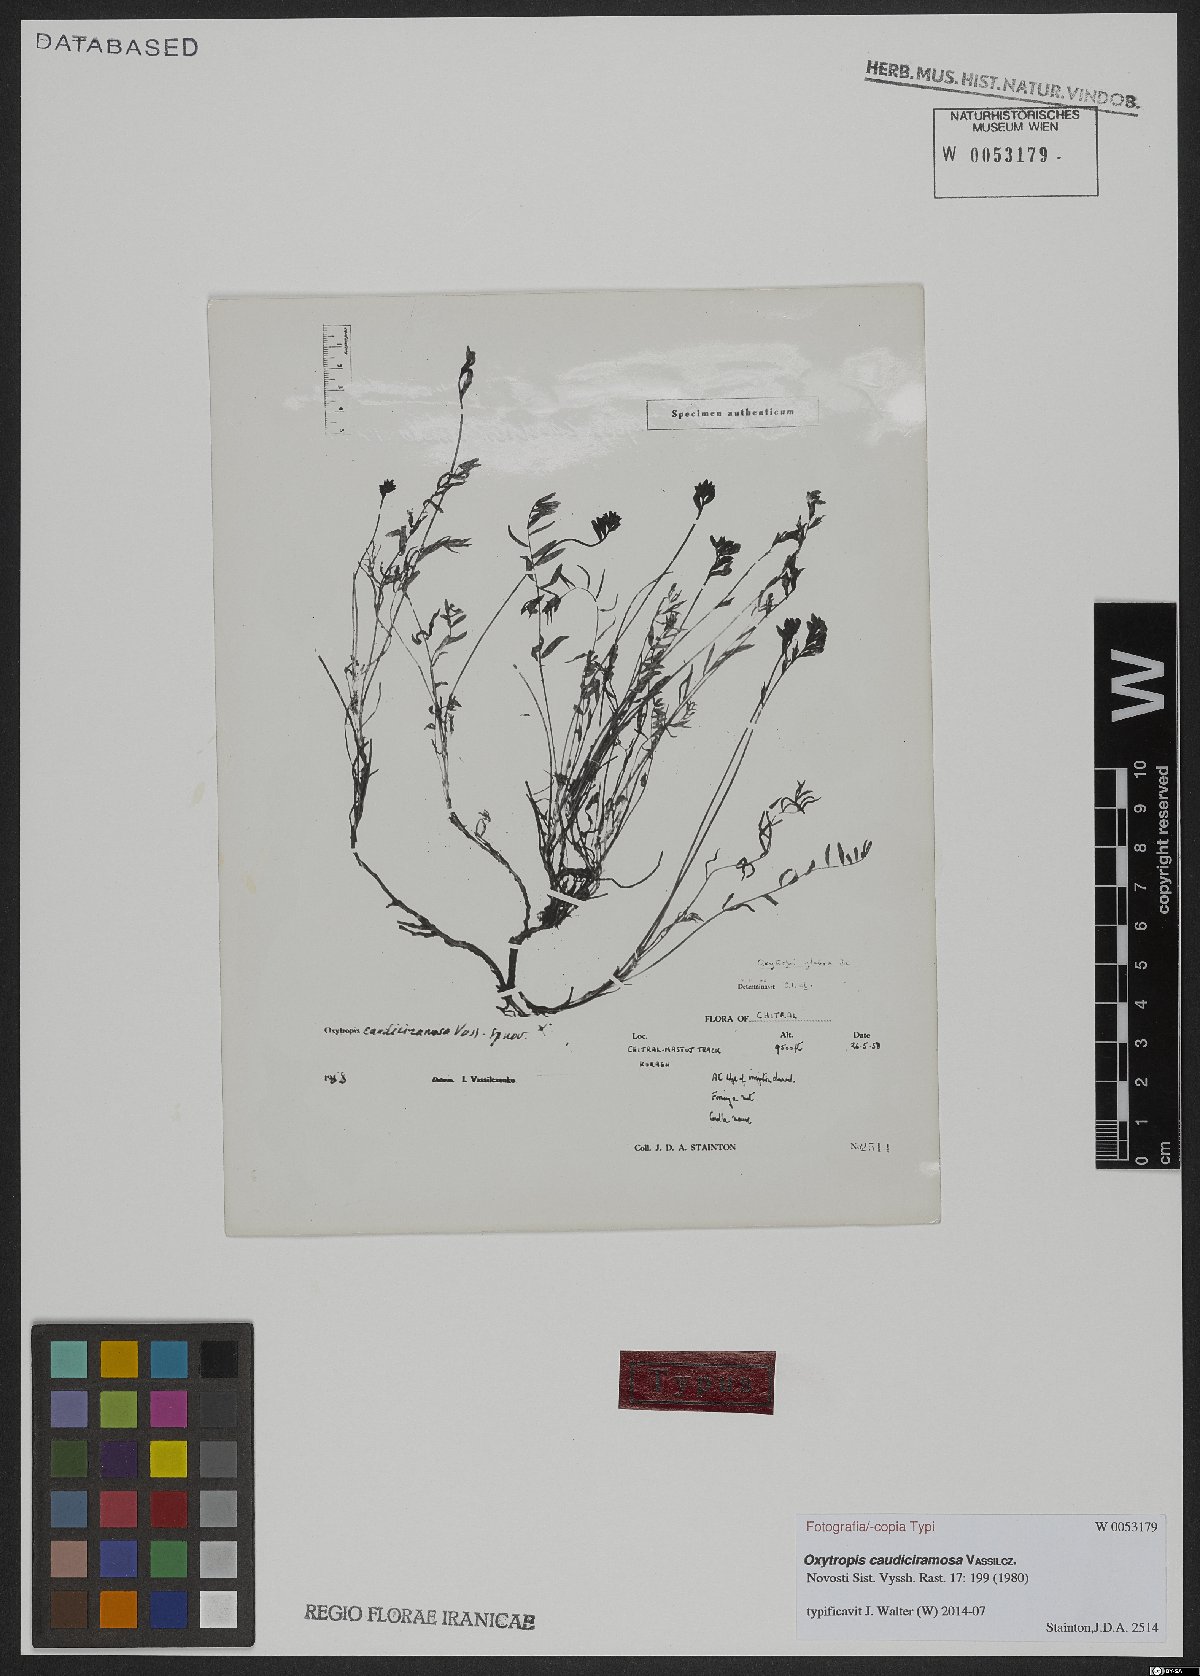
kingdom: Plantae
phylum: Tracheophyta
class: Magnoliopsida
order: Fabales
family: Fabaceae
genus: Oxytropis
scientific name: Oxytropis caudiciramosa
